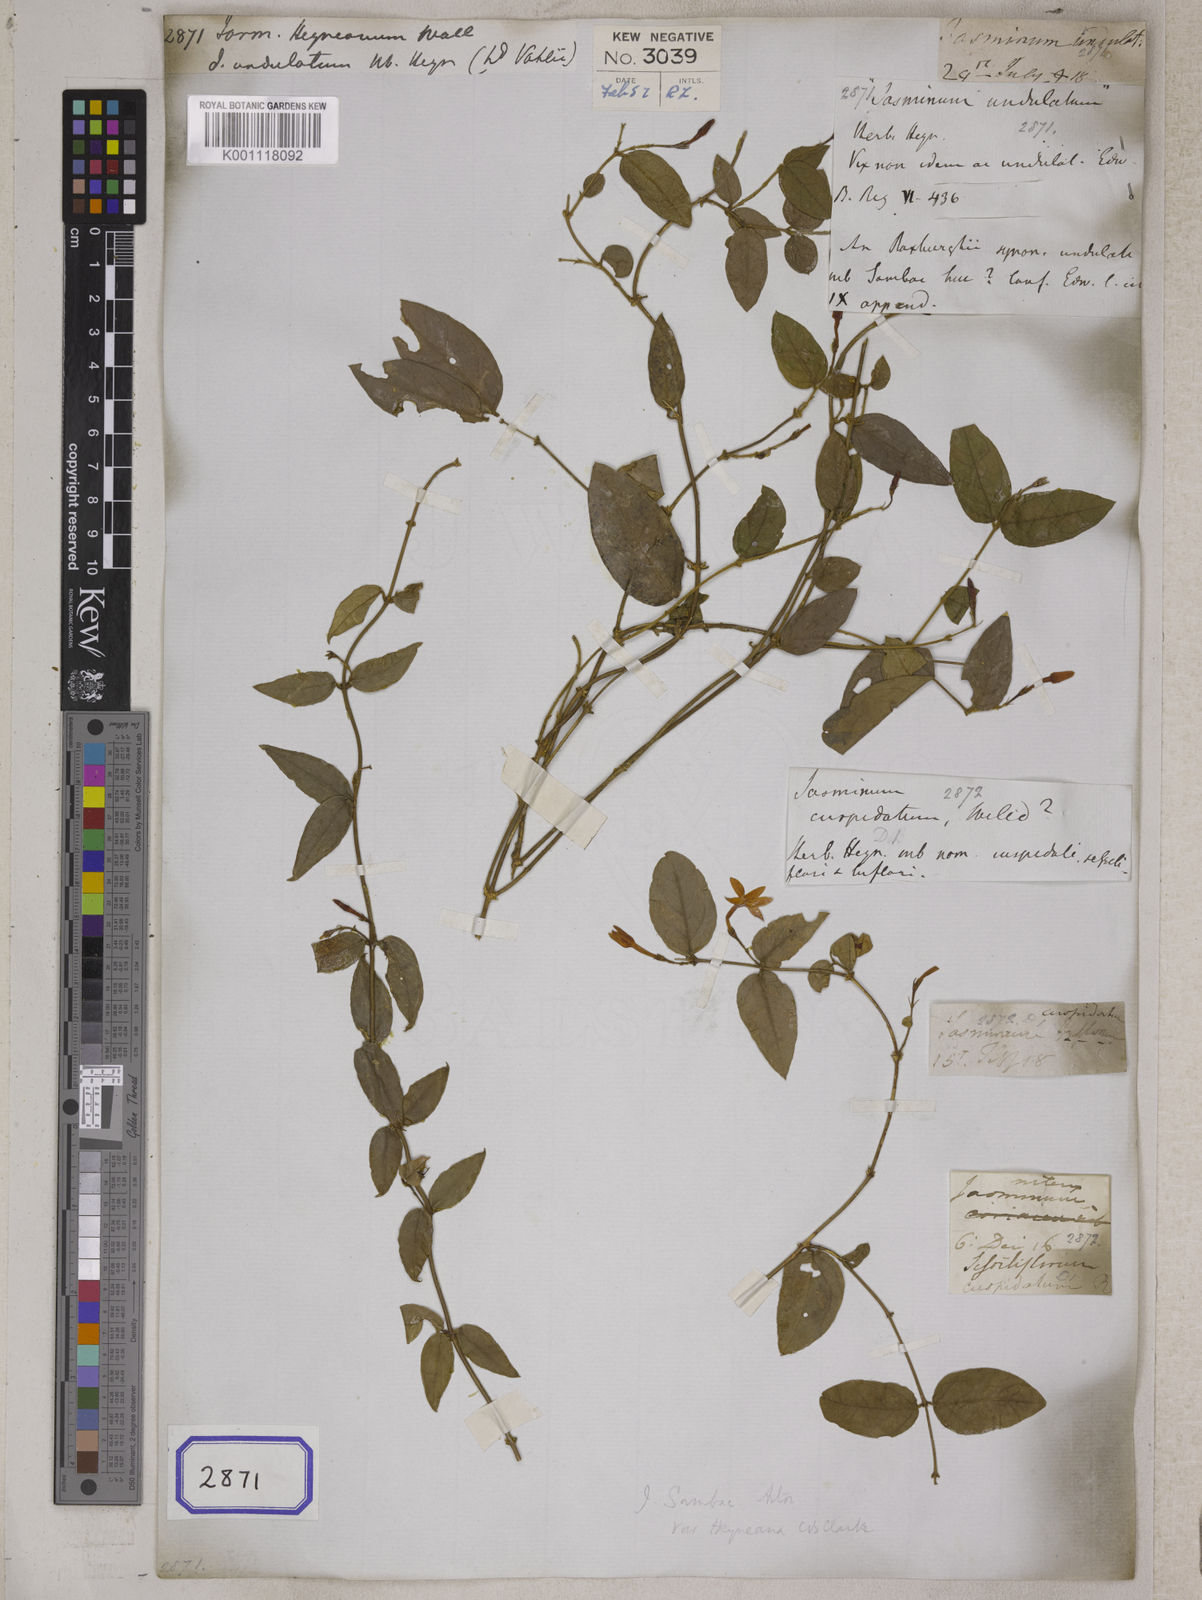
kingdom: Plantae
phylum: Tracheophyta
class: Magnoliopsida
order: Lamiales
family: Oleaceae
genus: Jasminum
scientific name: Jasminum
